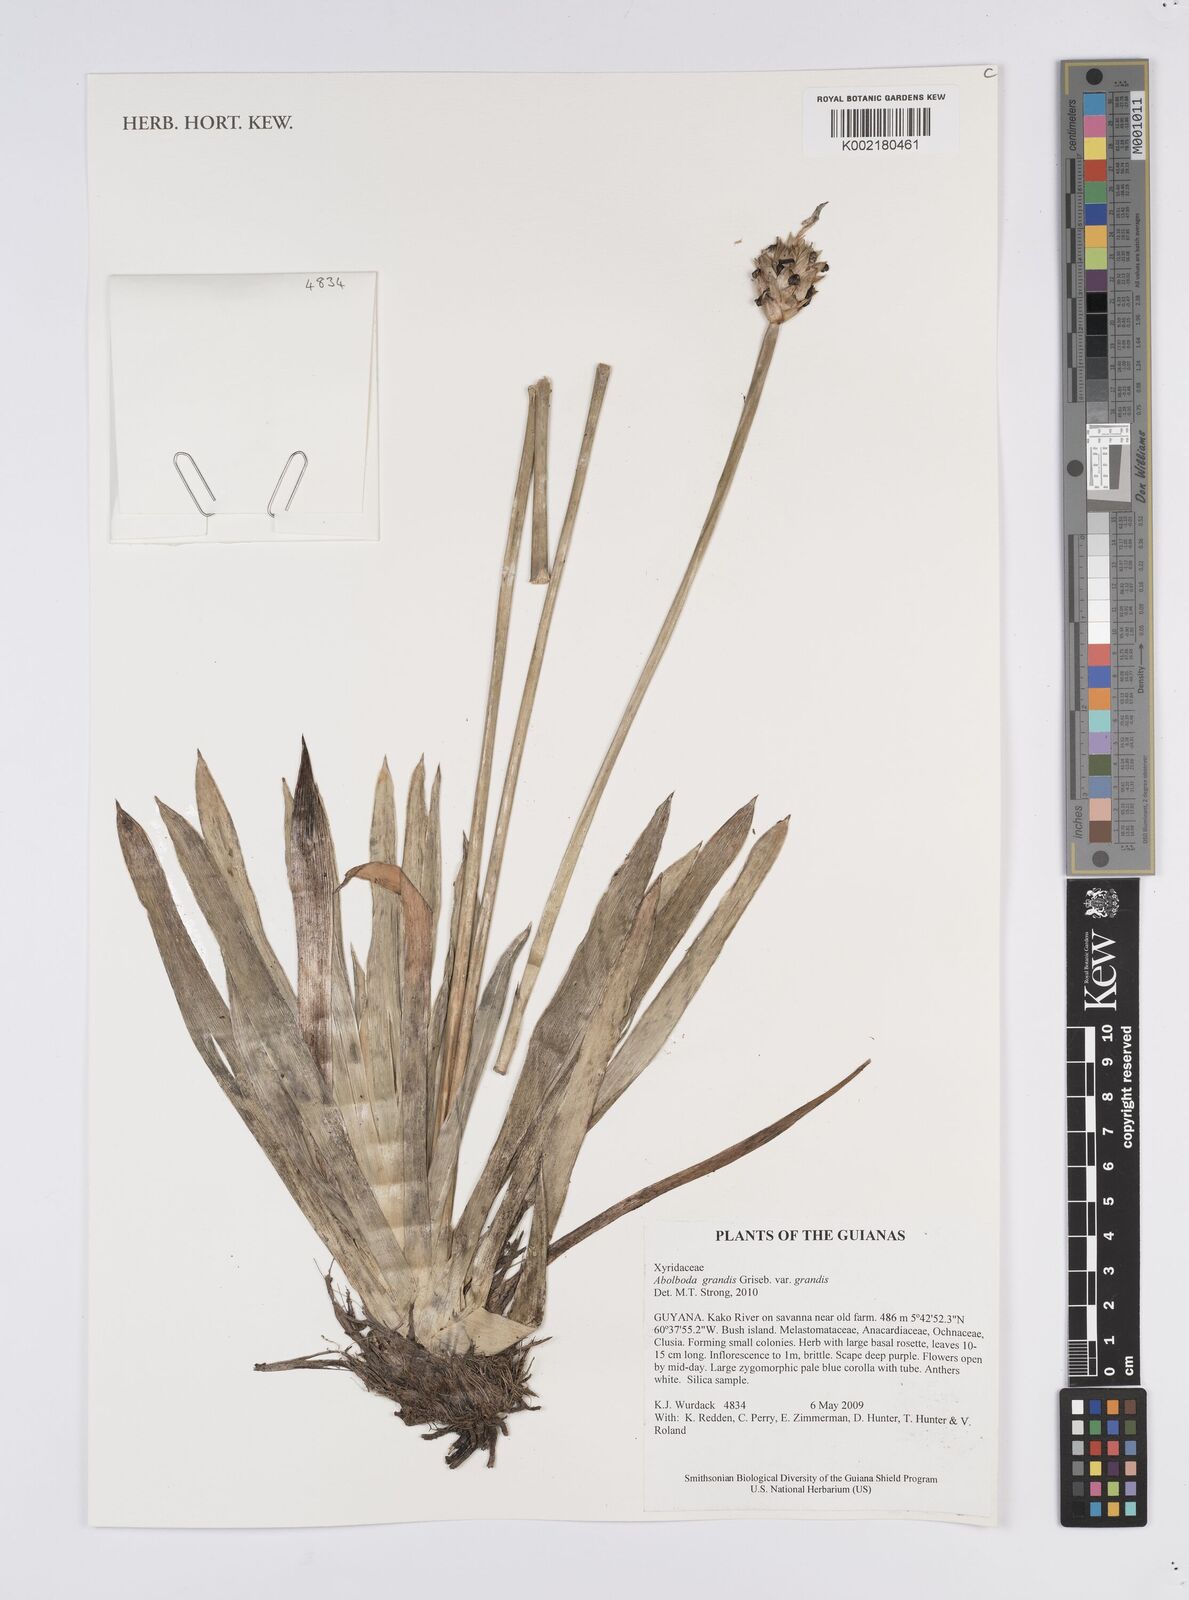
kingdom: Plantae
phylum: Tracheophyta
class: Liliopsida
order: Poales
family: Xyridaceae
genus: Abolboda
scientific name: Abolboda grandis
